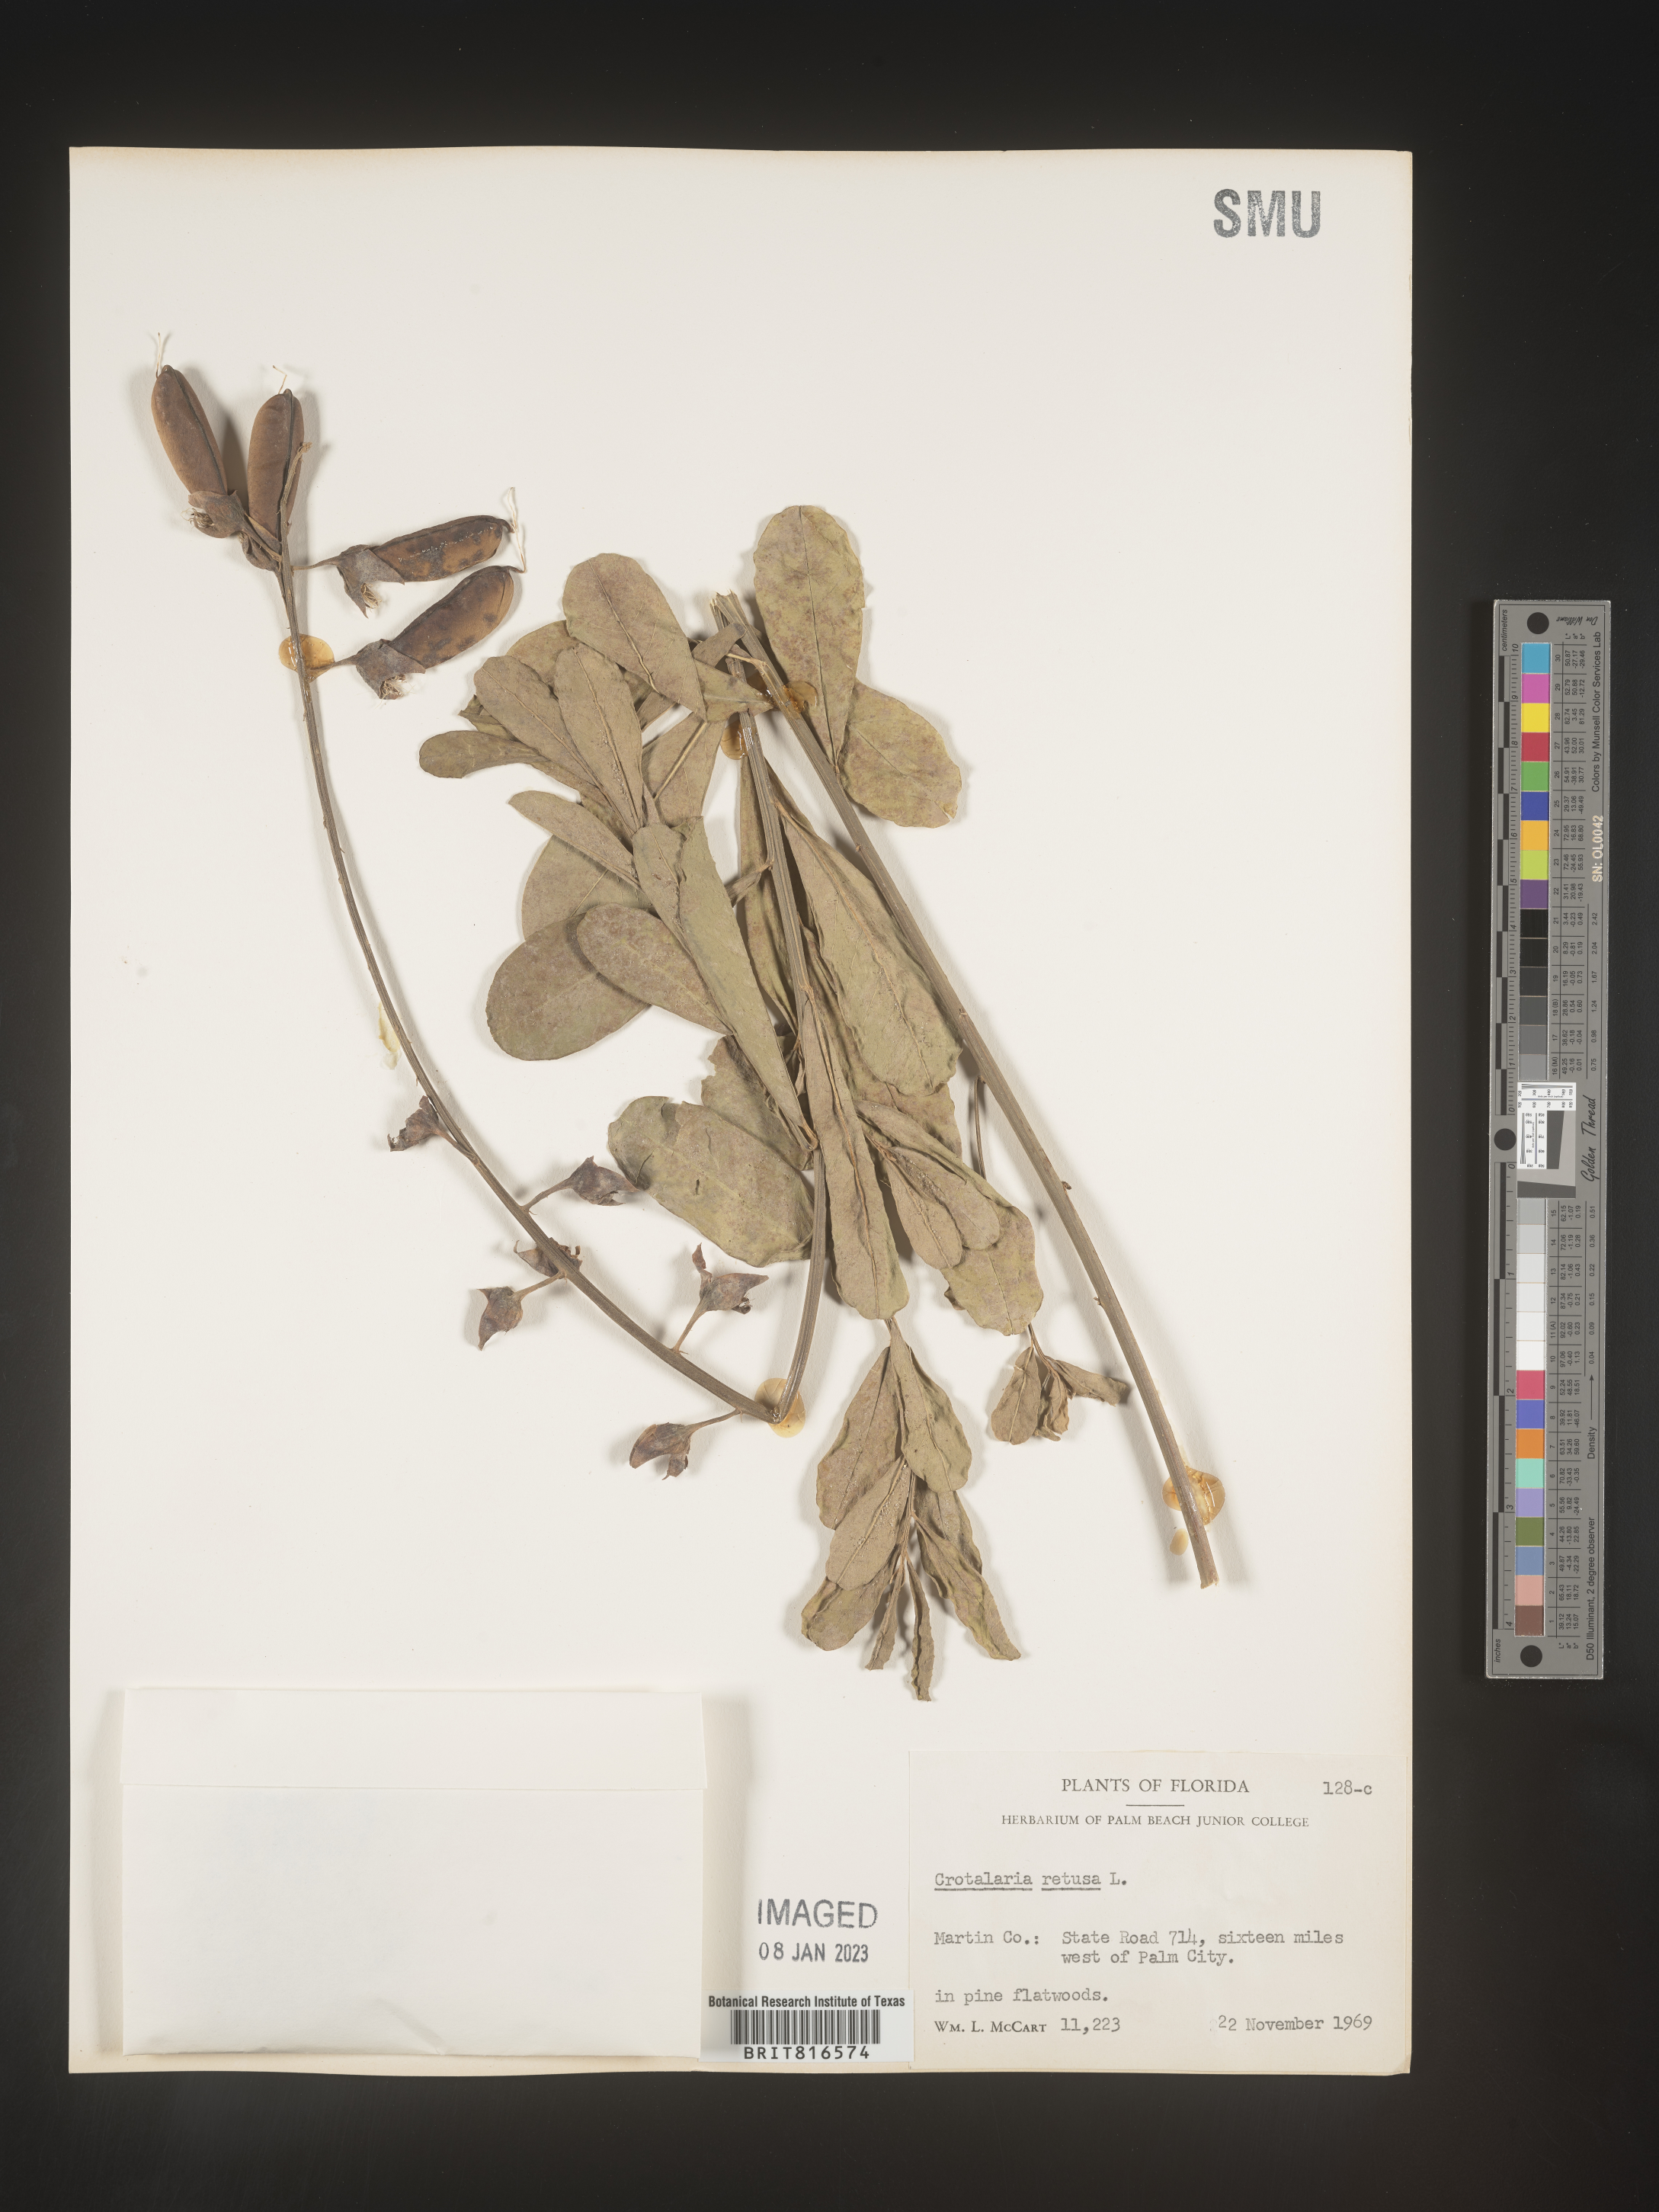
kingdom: Plantae
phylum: Tracheophyta
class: Magnoliopsida
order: Fabales
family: Fabaceae
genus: Crotalaria
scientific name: Crotalaria retusa
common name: Rattleweed
